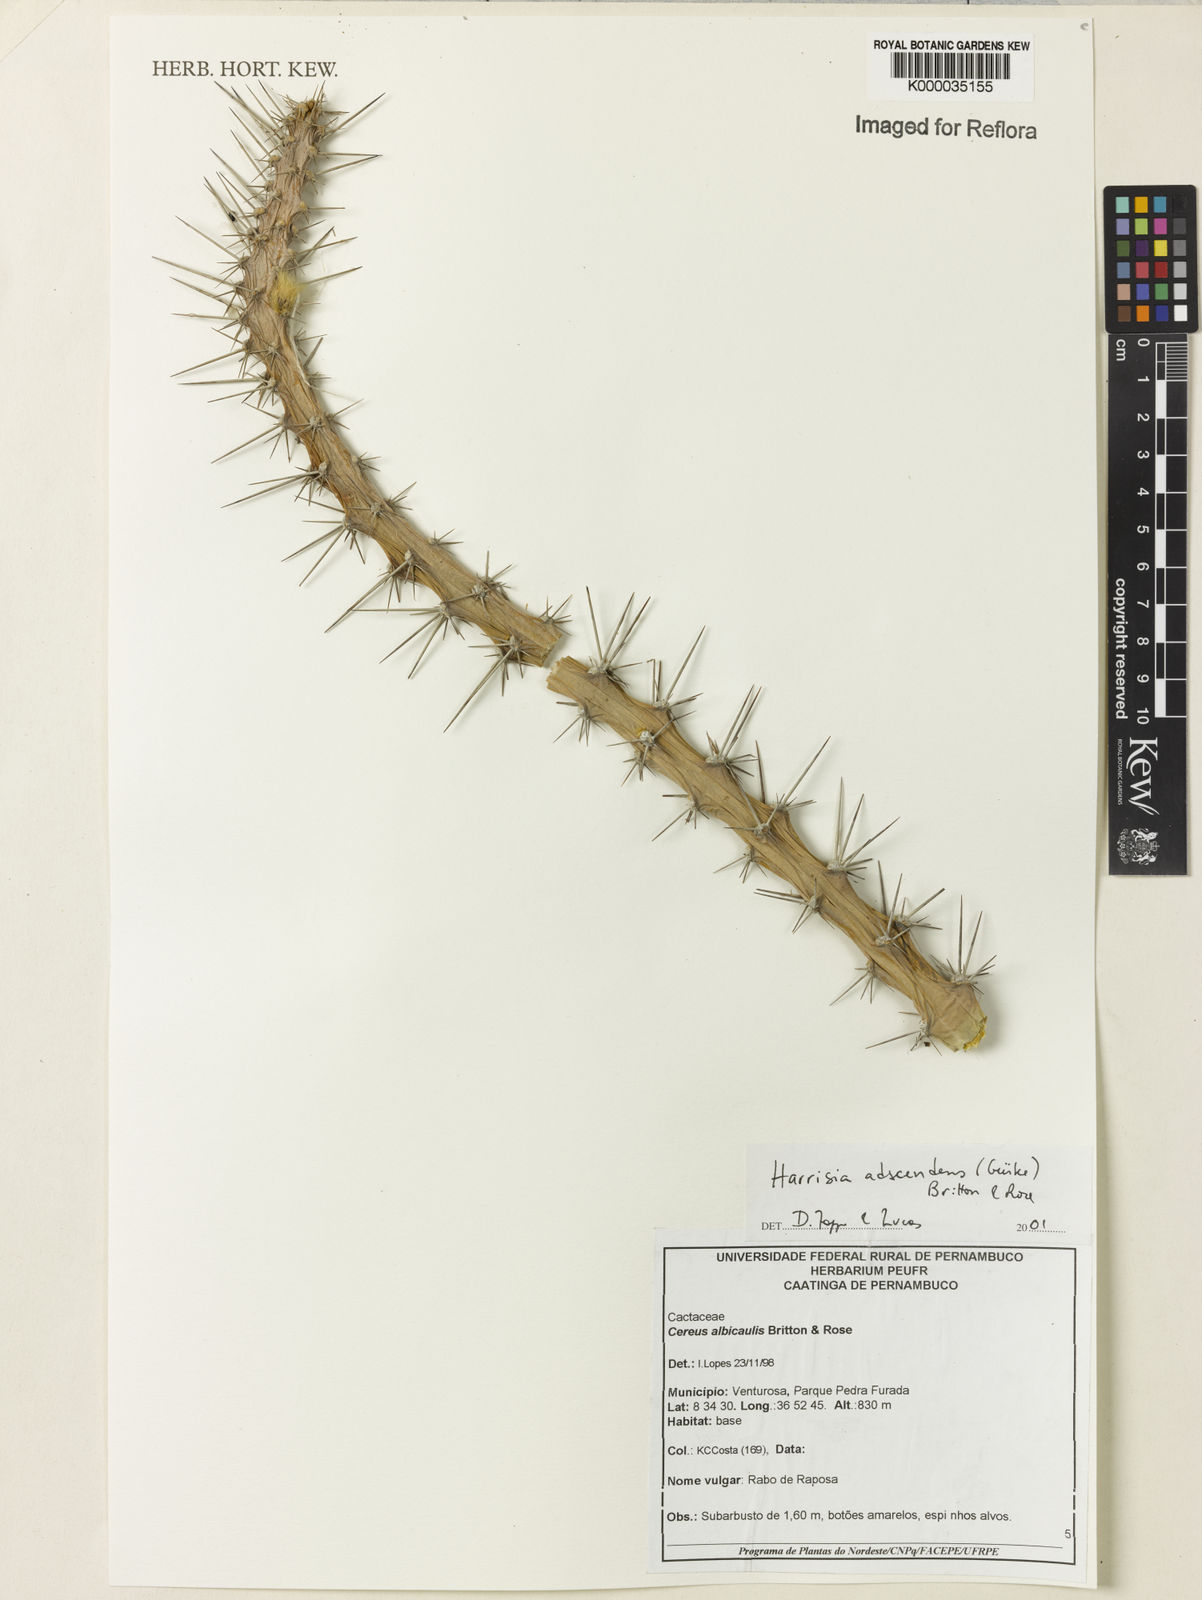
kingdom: Plantae
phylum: Tracheophyta
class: Magnoliopsida
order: Caryophyllales
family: Cactaceae
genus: Harrisia
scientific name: Harrisia adscendens
